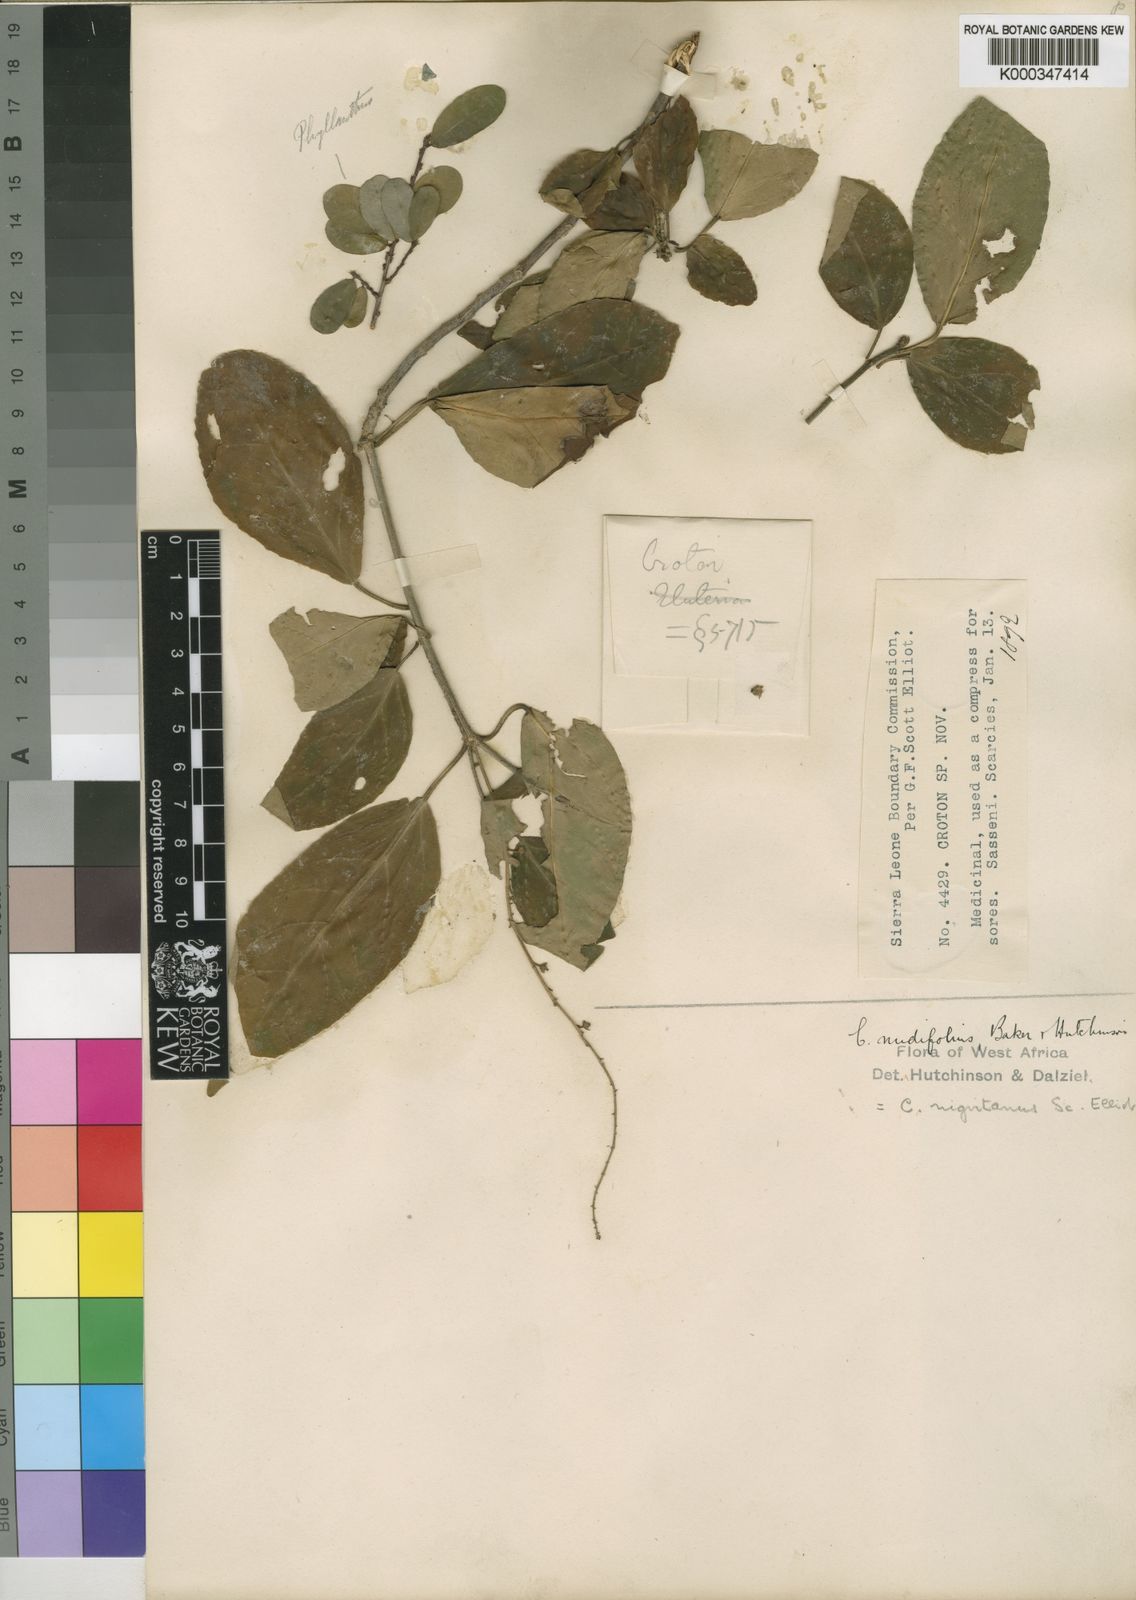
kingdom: Plantae
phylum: Tracheophyta
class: Magnoliopsida
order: Malpighiales
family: Euphorbiaceae
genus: Croton
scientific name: Croton nigritanus
